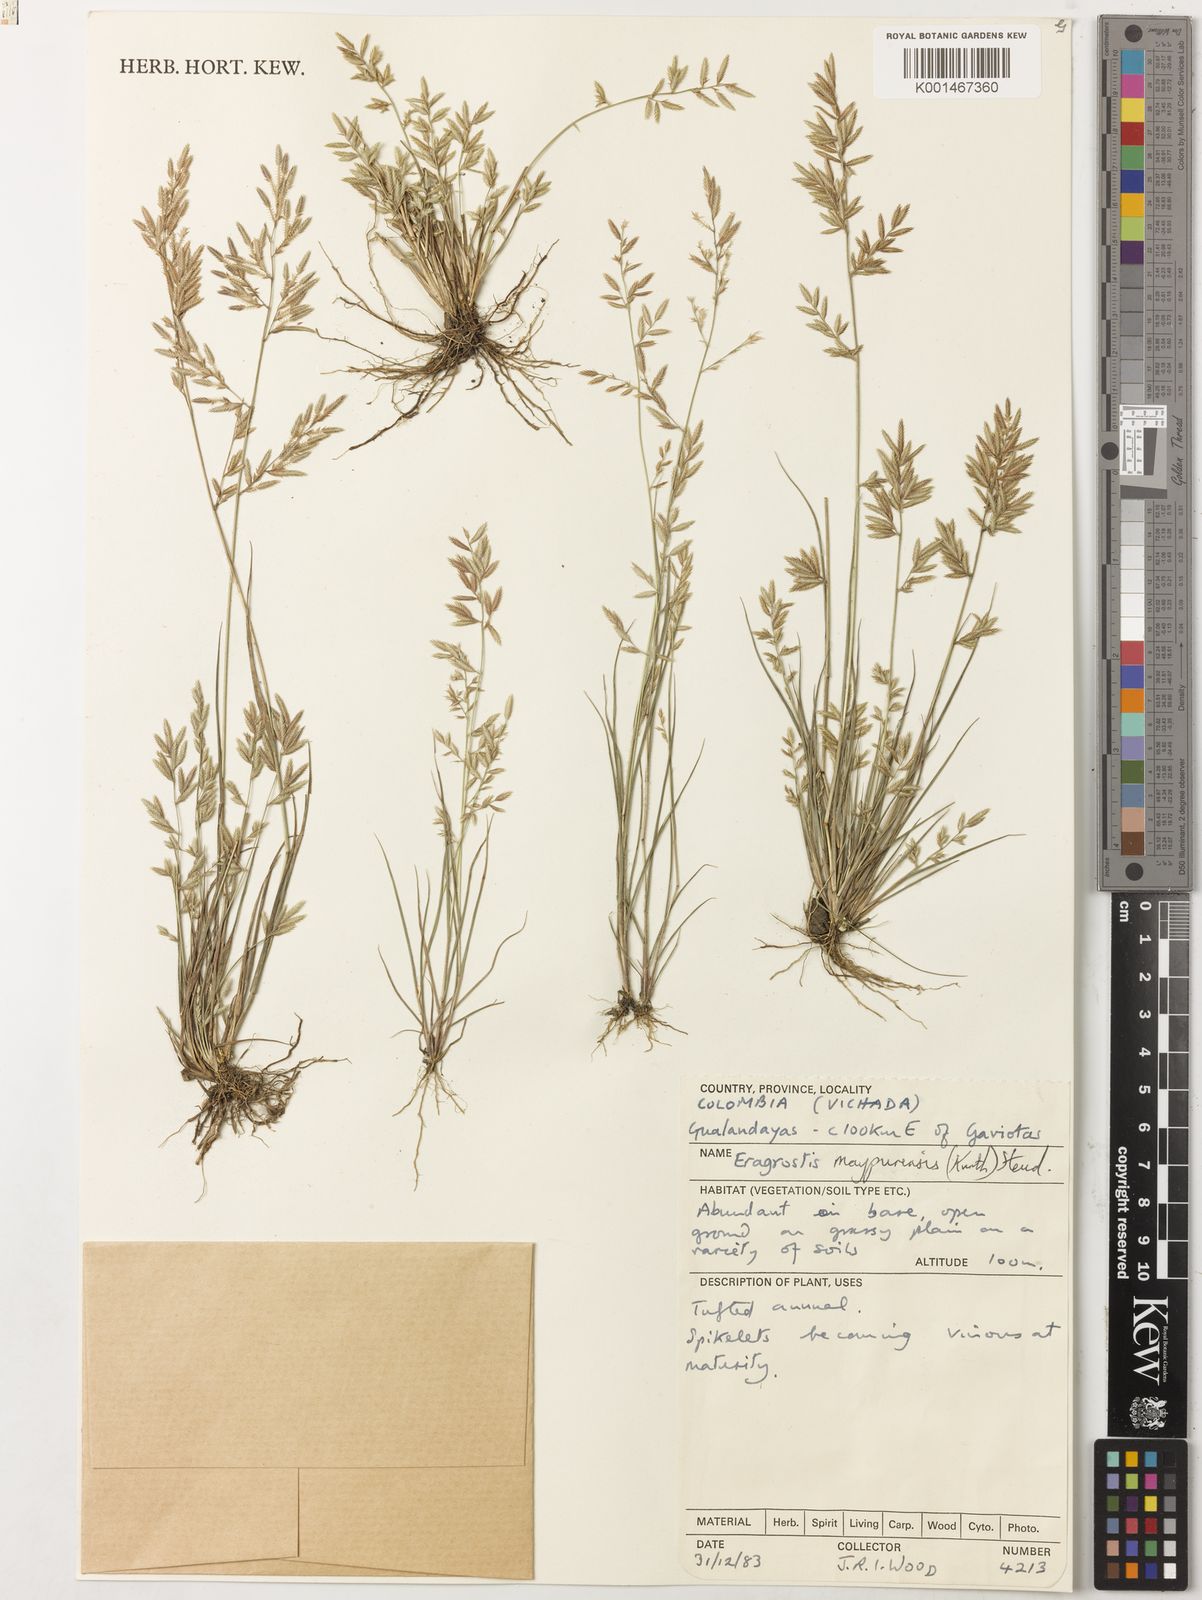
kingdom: Plantae
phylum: Tracheophyta
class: Liliopsida
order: Poales
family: Poaceae
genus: Eragrostis
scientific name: Eragrostis maypurensis
